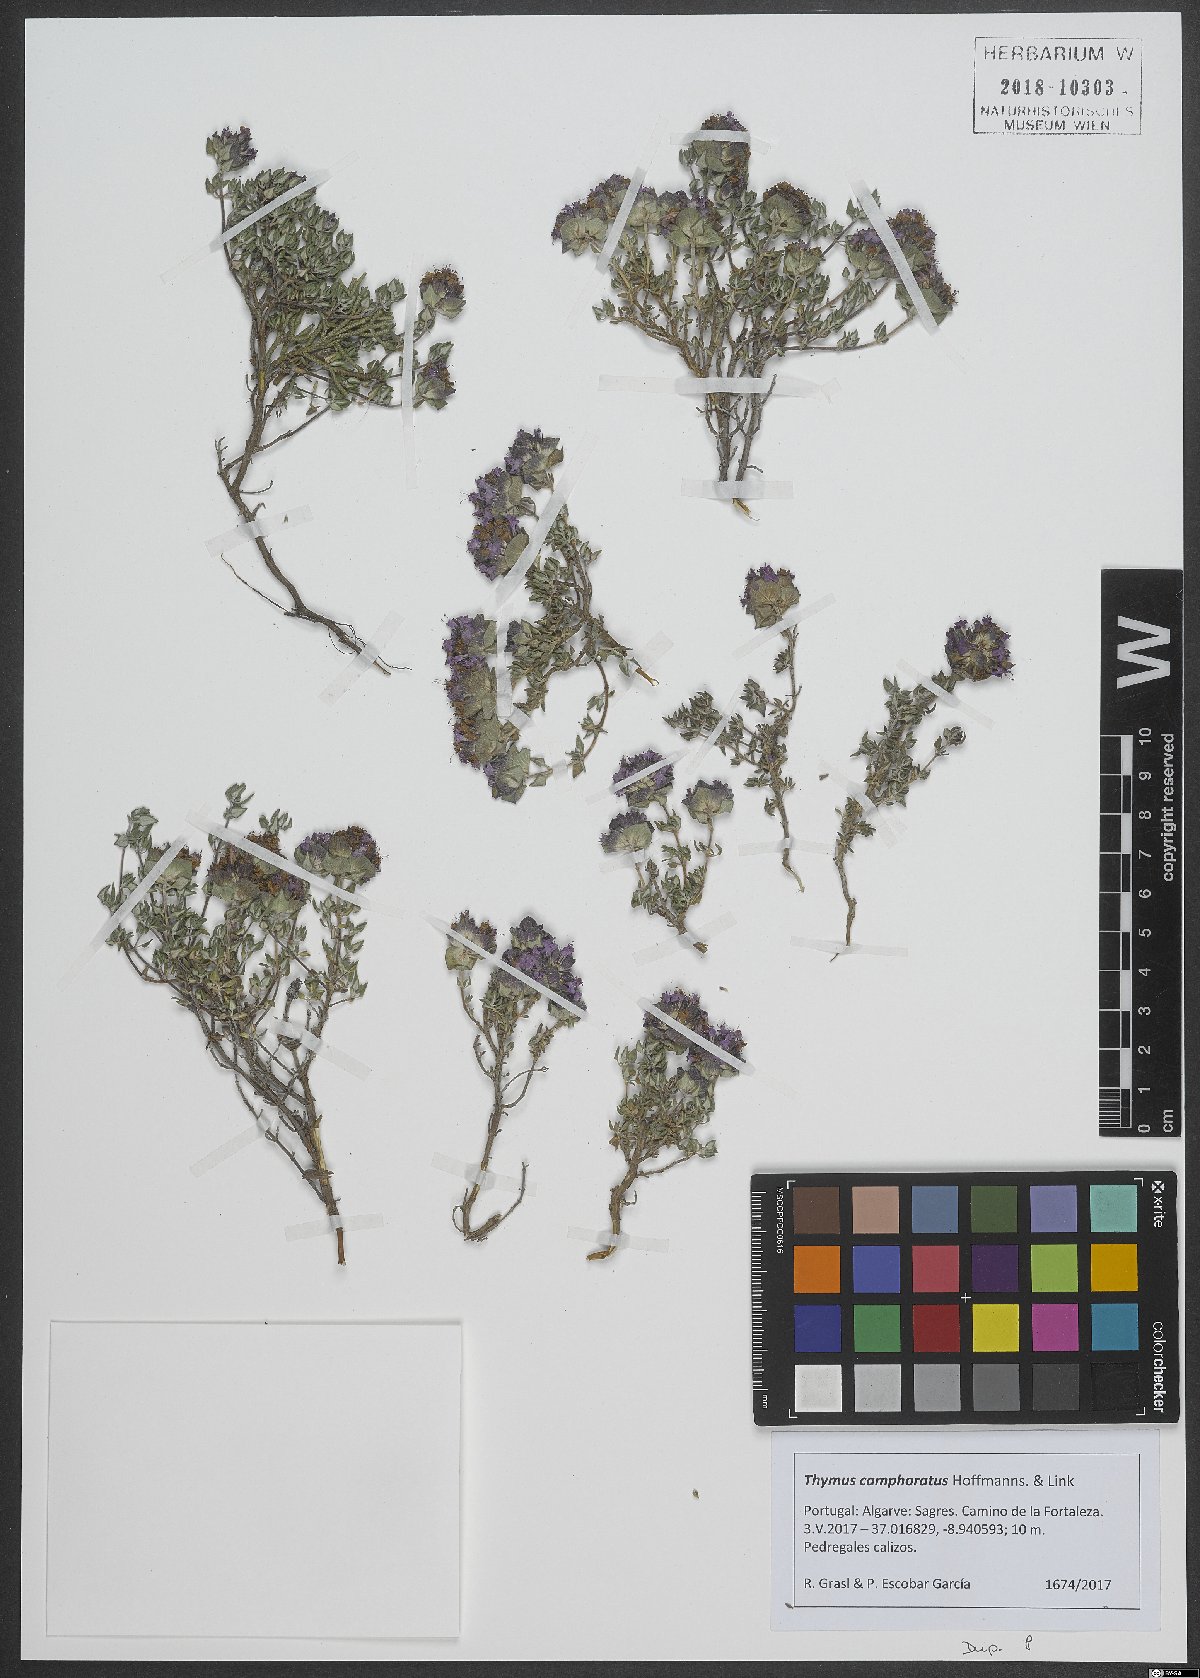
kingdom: Plantae
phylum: Tracheophyta
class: Magnoliopsida
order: Lamiales
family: Lamiaceae
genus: Thymus
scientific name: Thymus camphoratus
